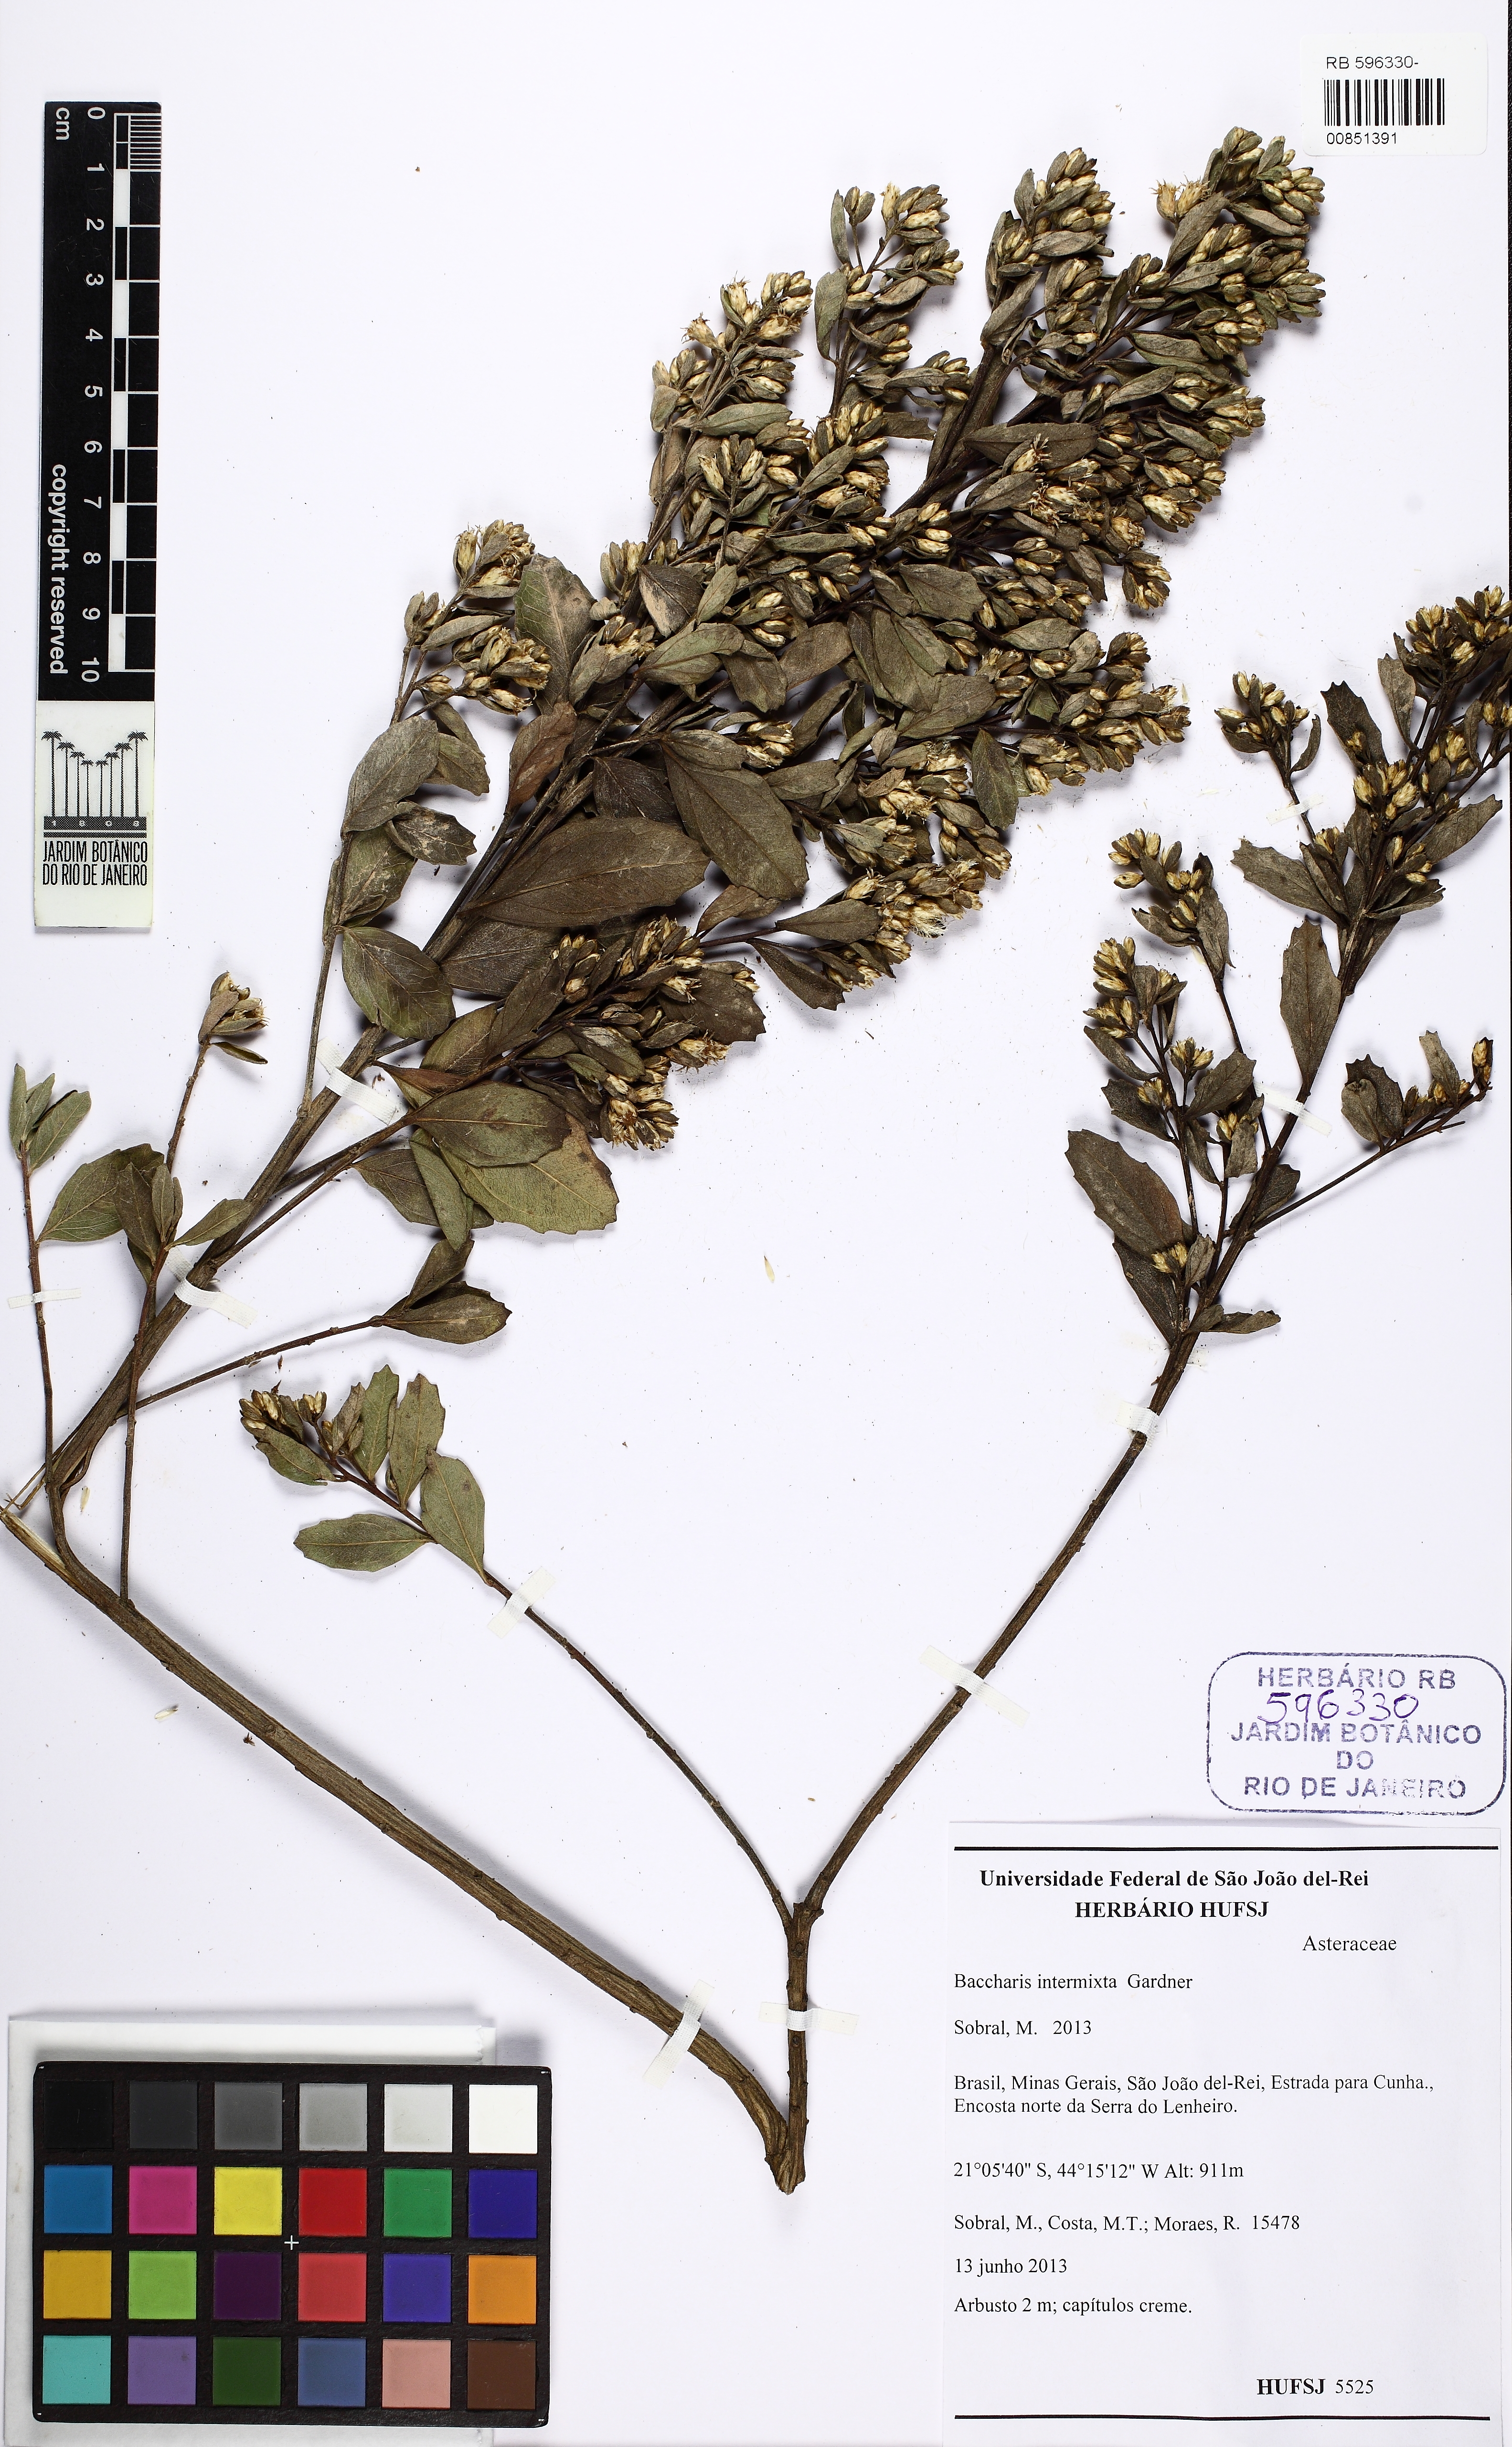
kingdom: Plantae
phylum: Tracheophyta
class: Magnoliopsida
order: Asterales
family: Asteraceae
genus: Baccharis
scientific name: Baccharis intermixta
